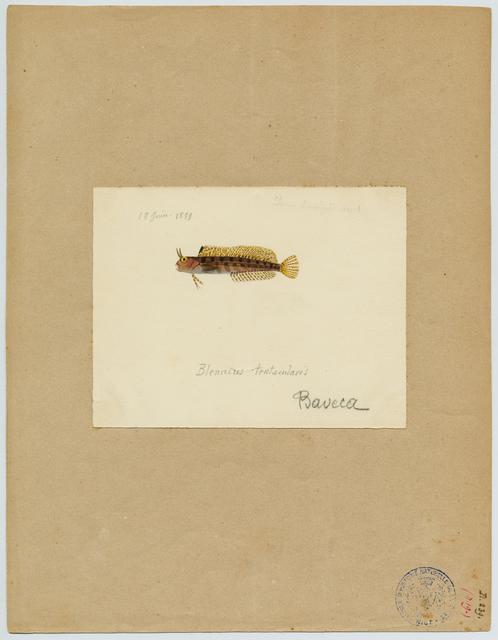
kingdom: Animalia
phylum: Chordata
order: Perciformes
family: Blenniidae
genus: Parablennius
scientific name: Parablennius tentacularis
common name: Tentacled blenny
